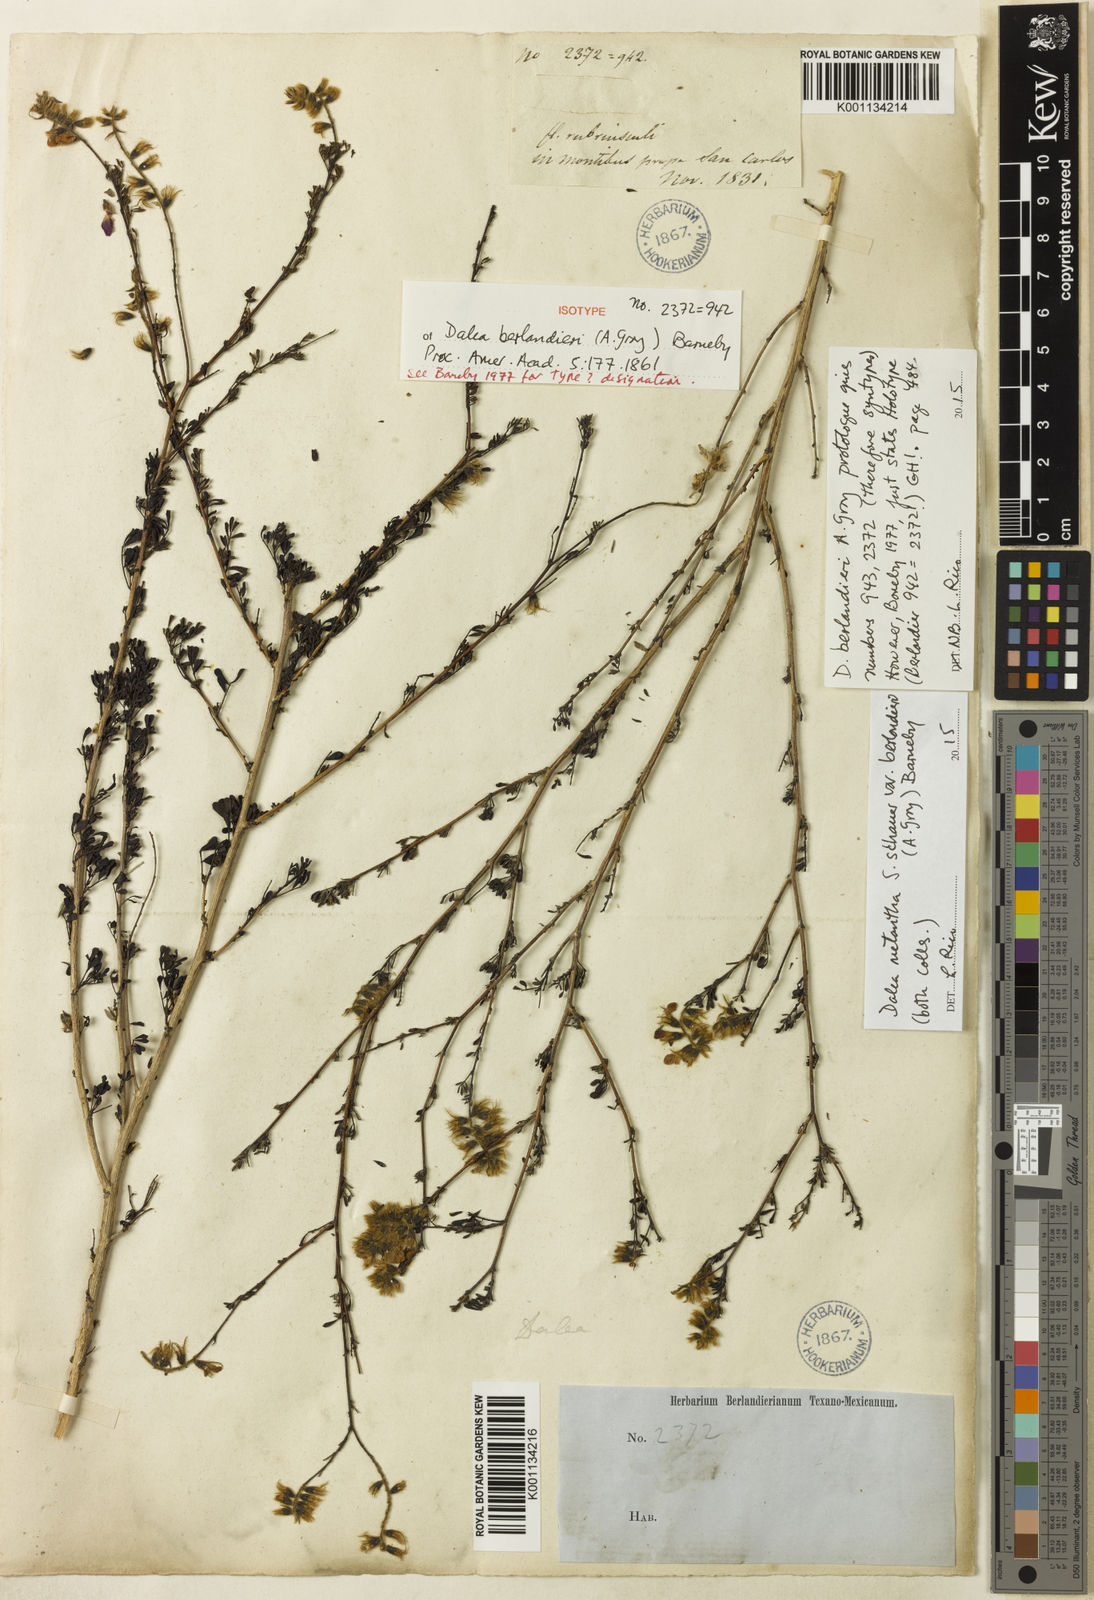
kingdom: Plantae
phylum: Tracheophyta
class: Magnoliopsida
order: Fabales
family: Fabaceae
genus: Dalea
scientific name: Dalea melantha
